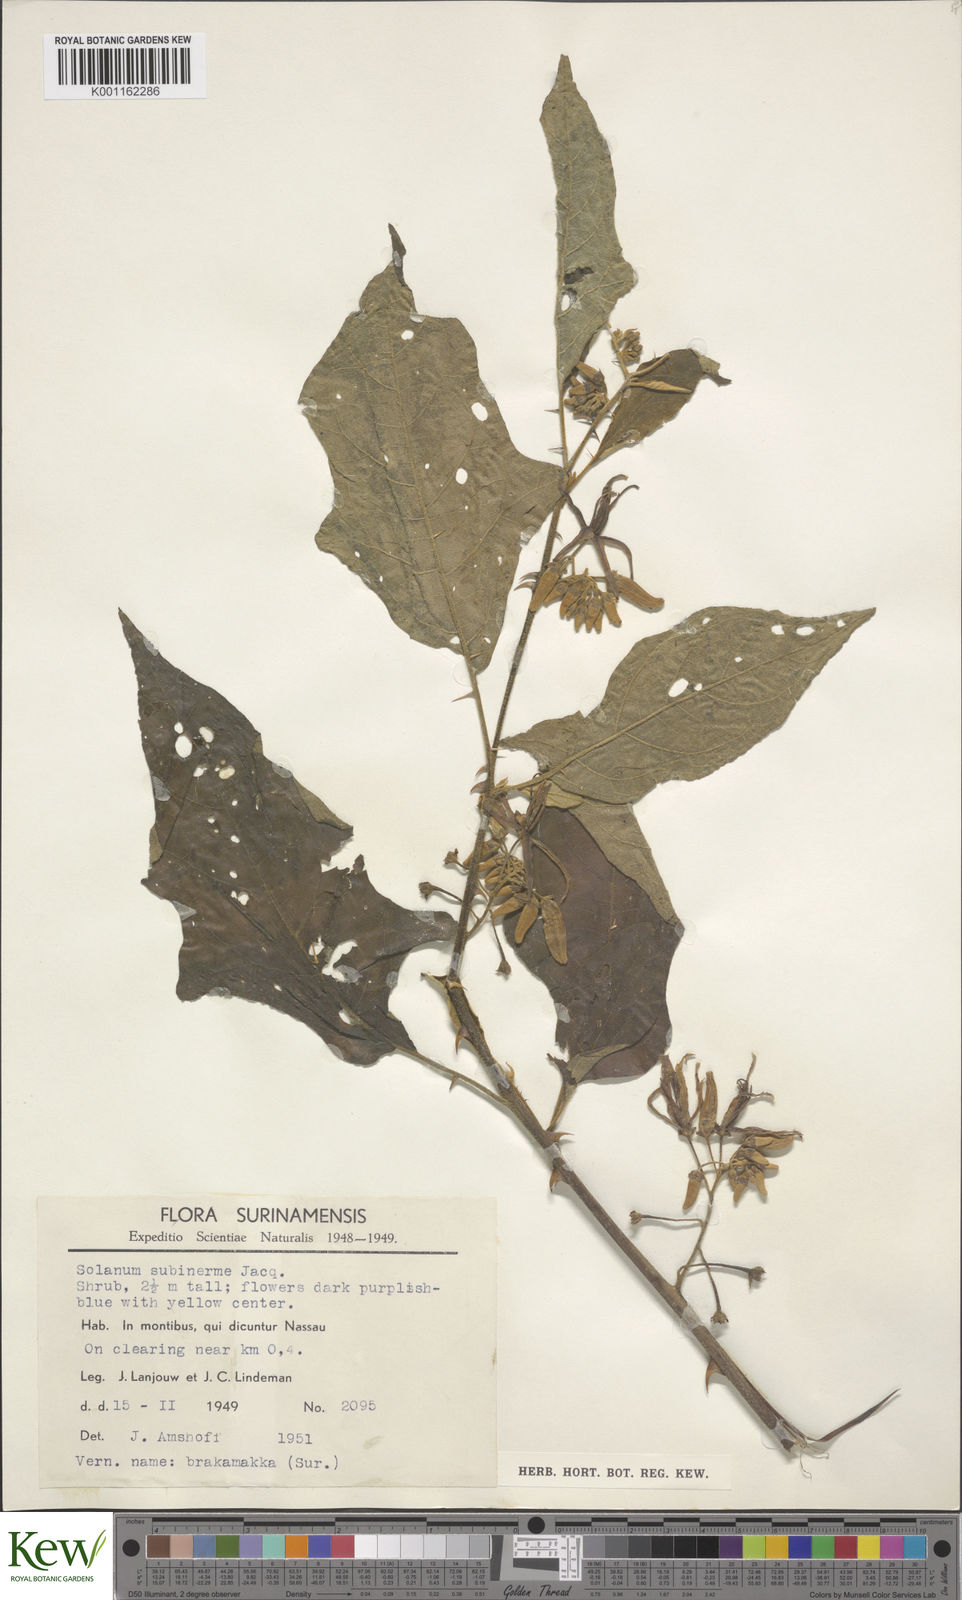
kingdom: Plantae
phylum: Tracheophyta
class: Magnoliopsida
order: Solanales
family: Solanaceae
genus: Solanum
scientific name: Solanum subinerme
